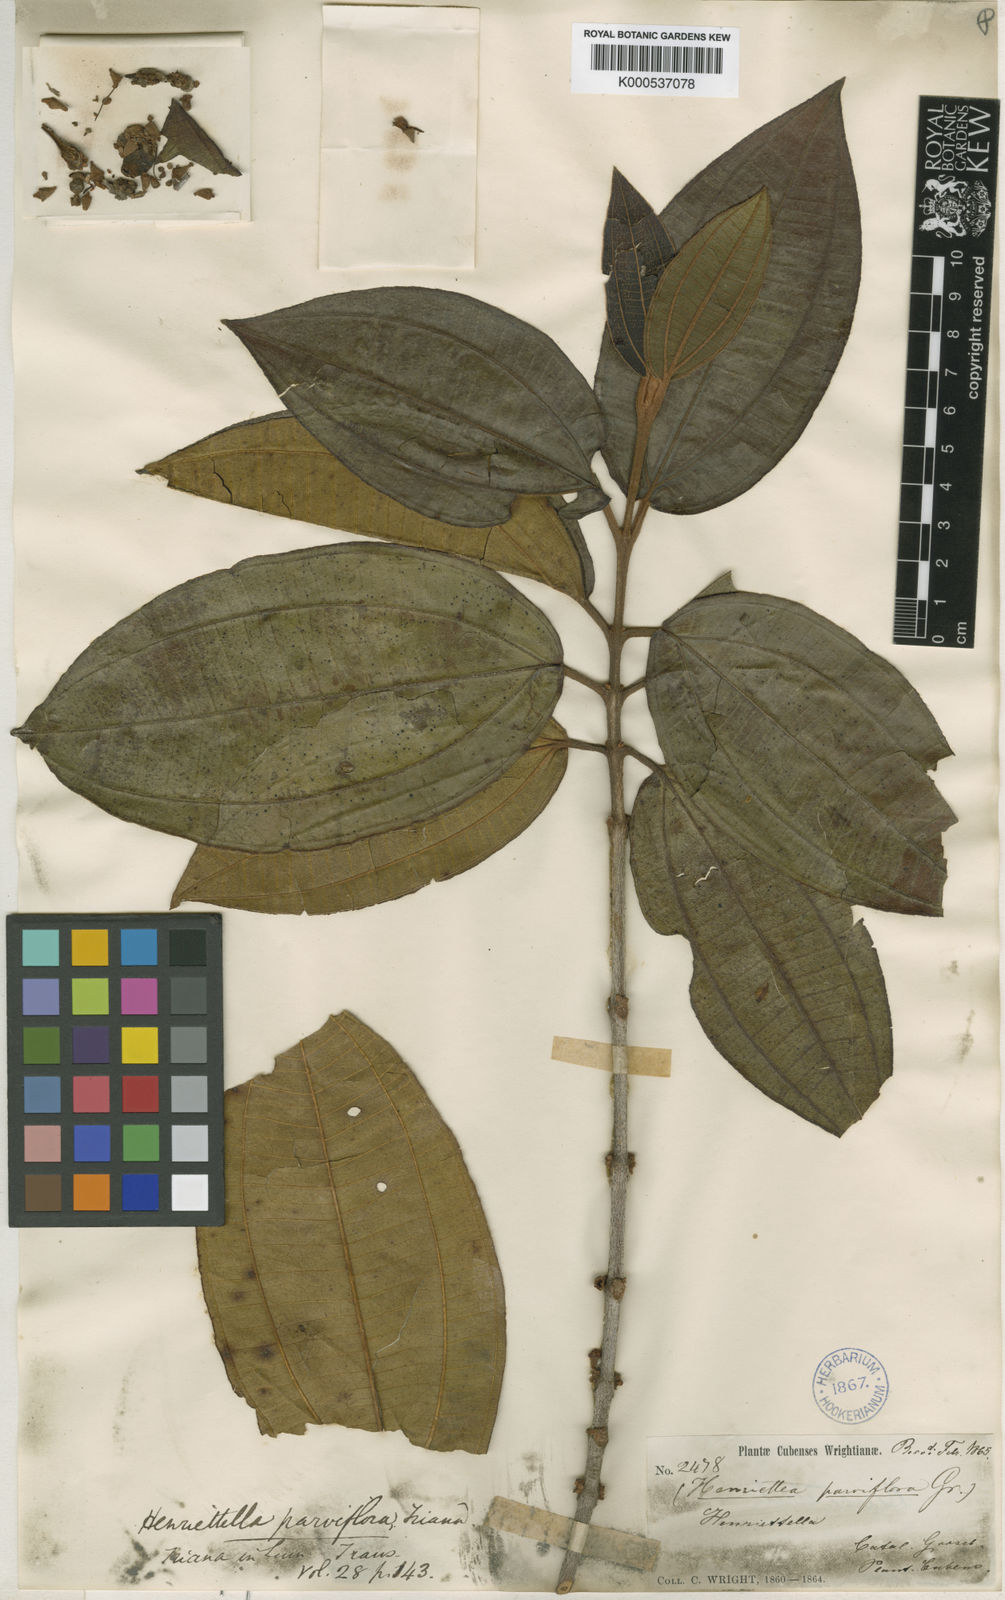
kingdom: Plantae
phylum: Tracheophyta
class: Magnoliopsida
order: Myrtales
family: Melastomataceae
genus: Henriettea
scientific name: Henriettea patrisiana
